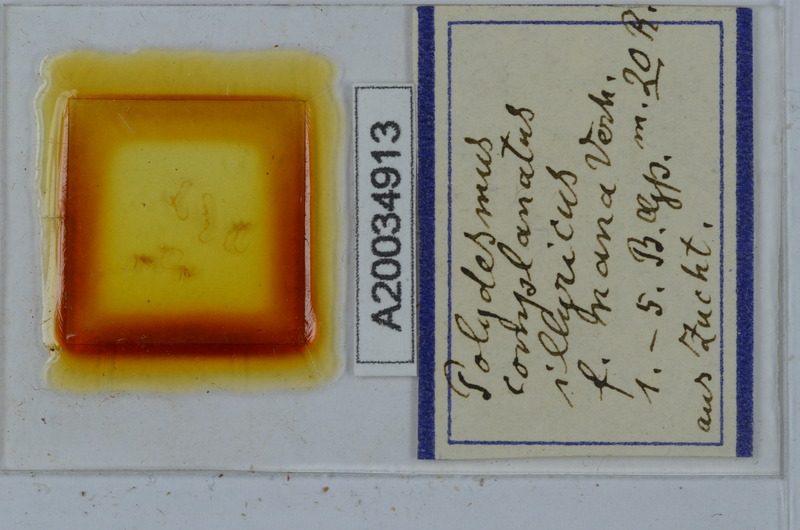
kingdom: Animalia
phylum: Arthropoda
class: Diplopoda
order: Polydesmida
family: Polydesmidae
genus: Polydesmus
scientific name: Polydesmus complanatus
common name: Flat-backed millipede
